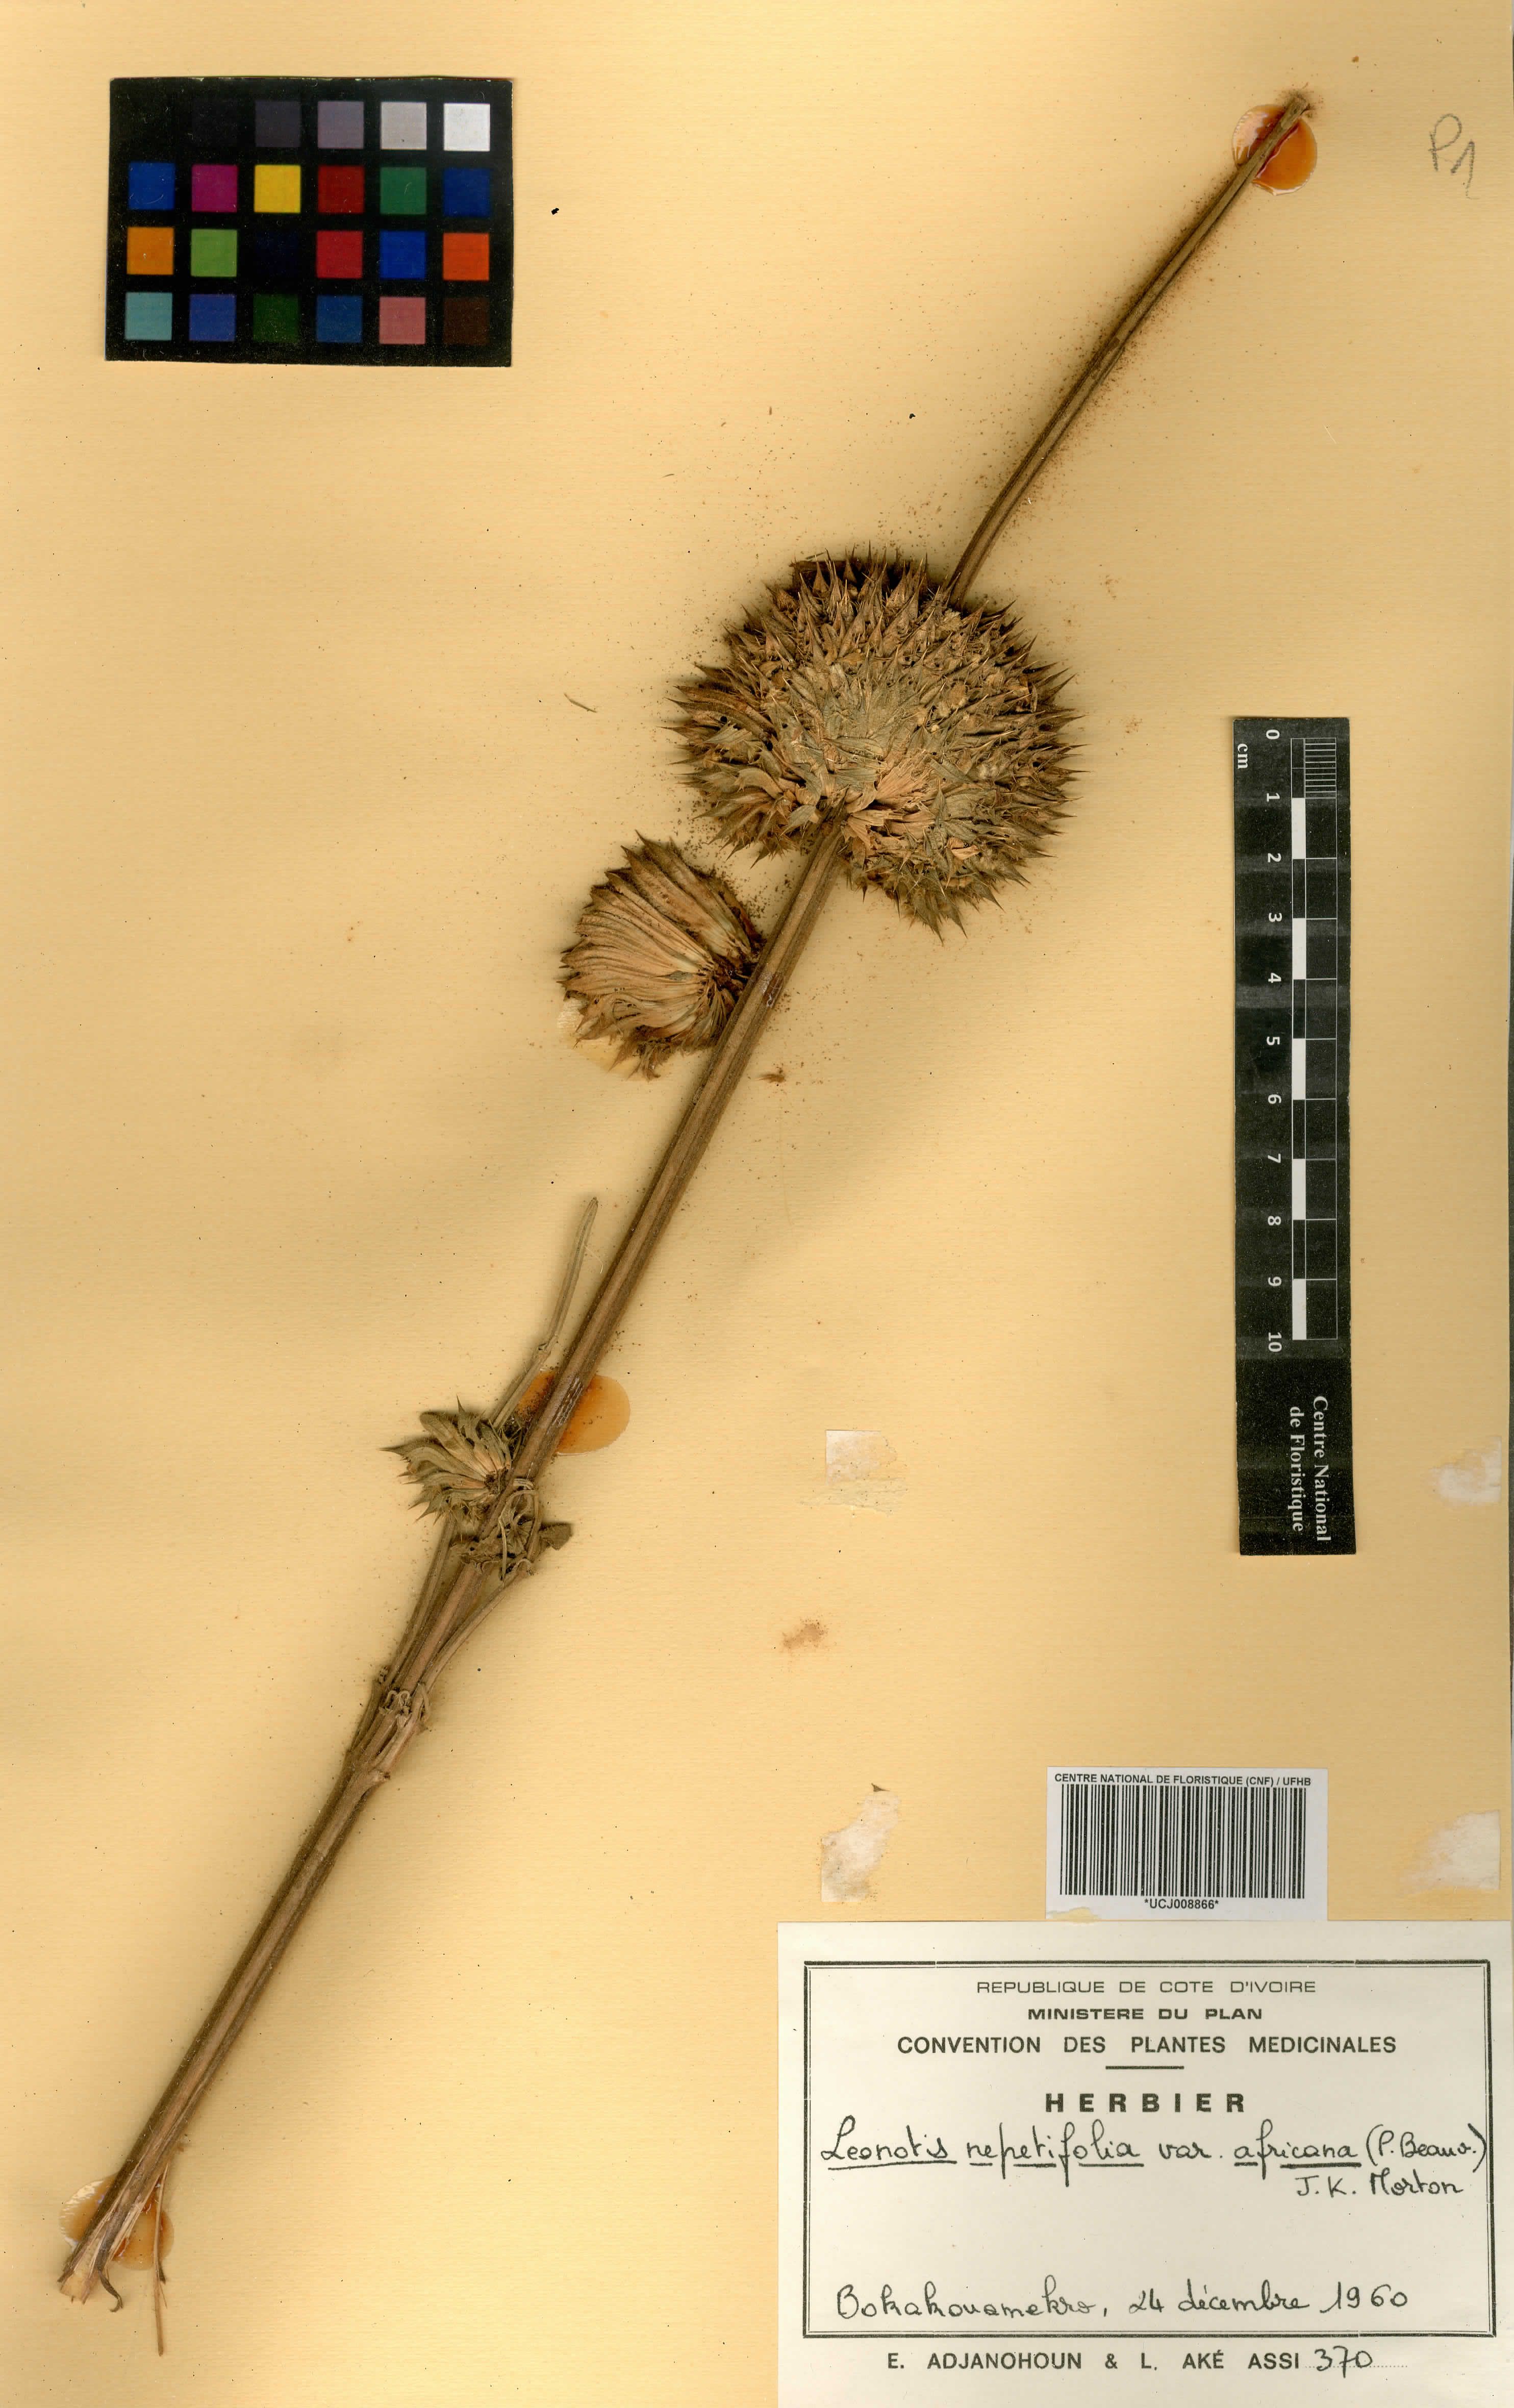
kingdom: Plantae
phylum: Tracheophyta
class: Magnoliopsida
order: Lamiales
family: Lamiaceae
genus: Leonotis
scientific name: Leonotis nepetifolia
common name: Christmas candlestick
